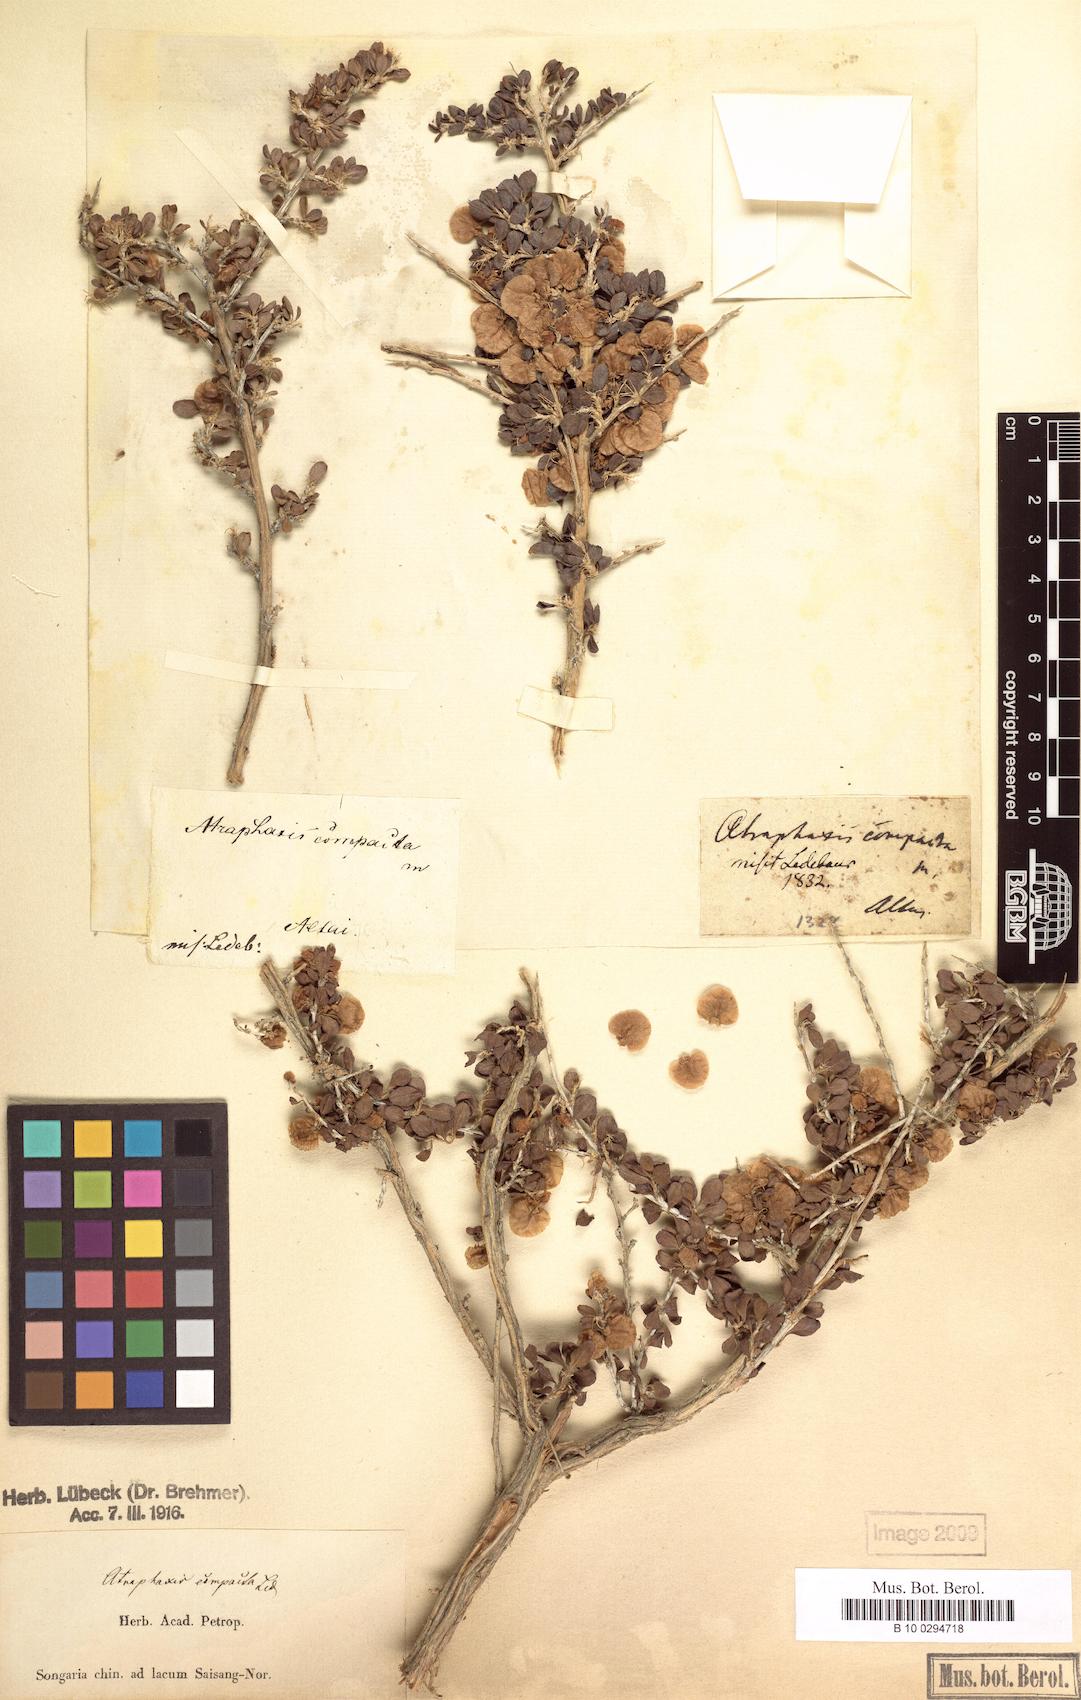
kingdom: Plantae
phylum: Tracheophyta
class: Magnoliopsida
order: Caryophyllales
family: Polygonaceae
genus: Atraphaxis
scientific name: Atraphaxis compacta
